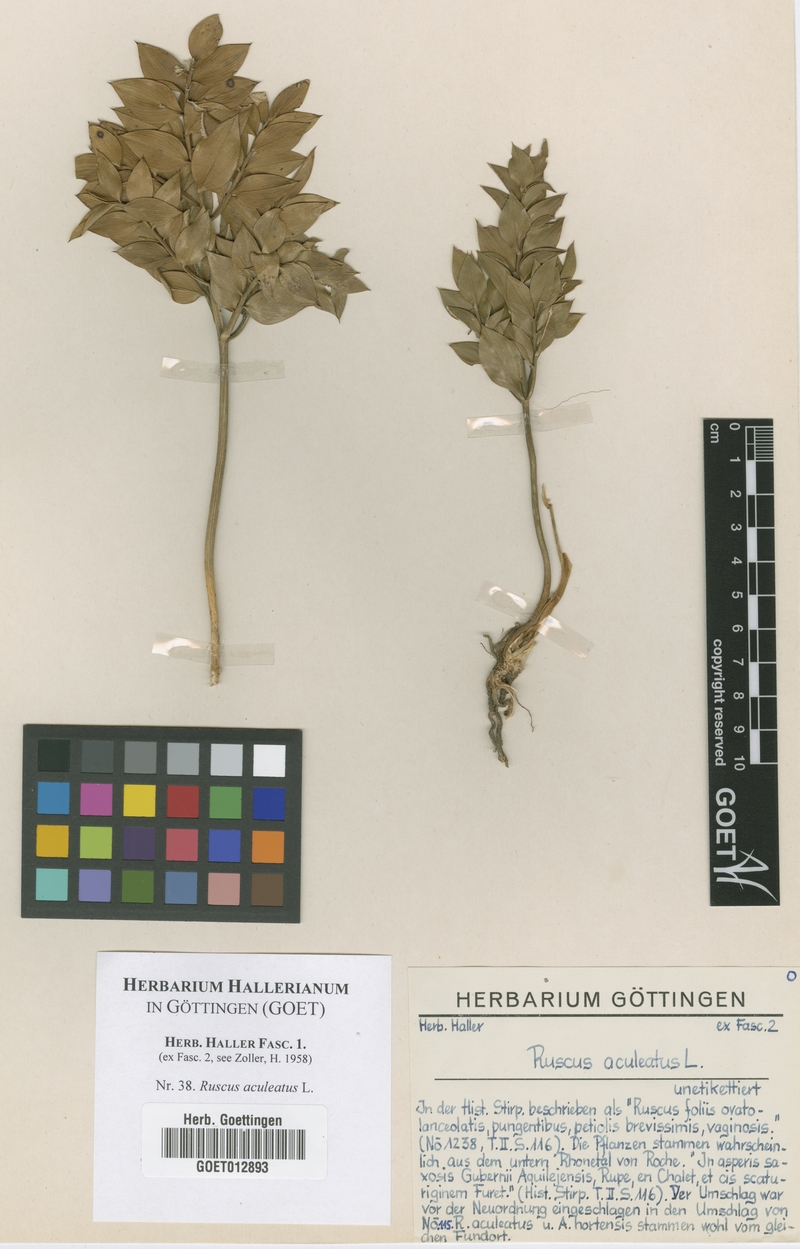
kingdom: Plantae
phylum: Tracheophyta
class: Liliopsida
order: Asparagales
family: Asparagaceae
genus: Ruscus
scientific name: Ruscus aculeatus
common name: Butcher's-broom
